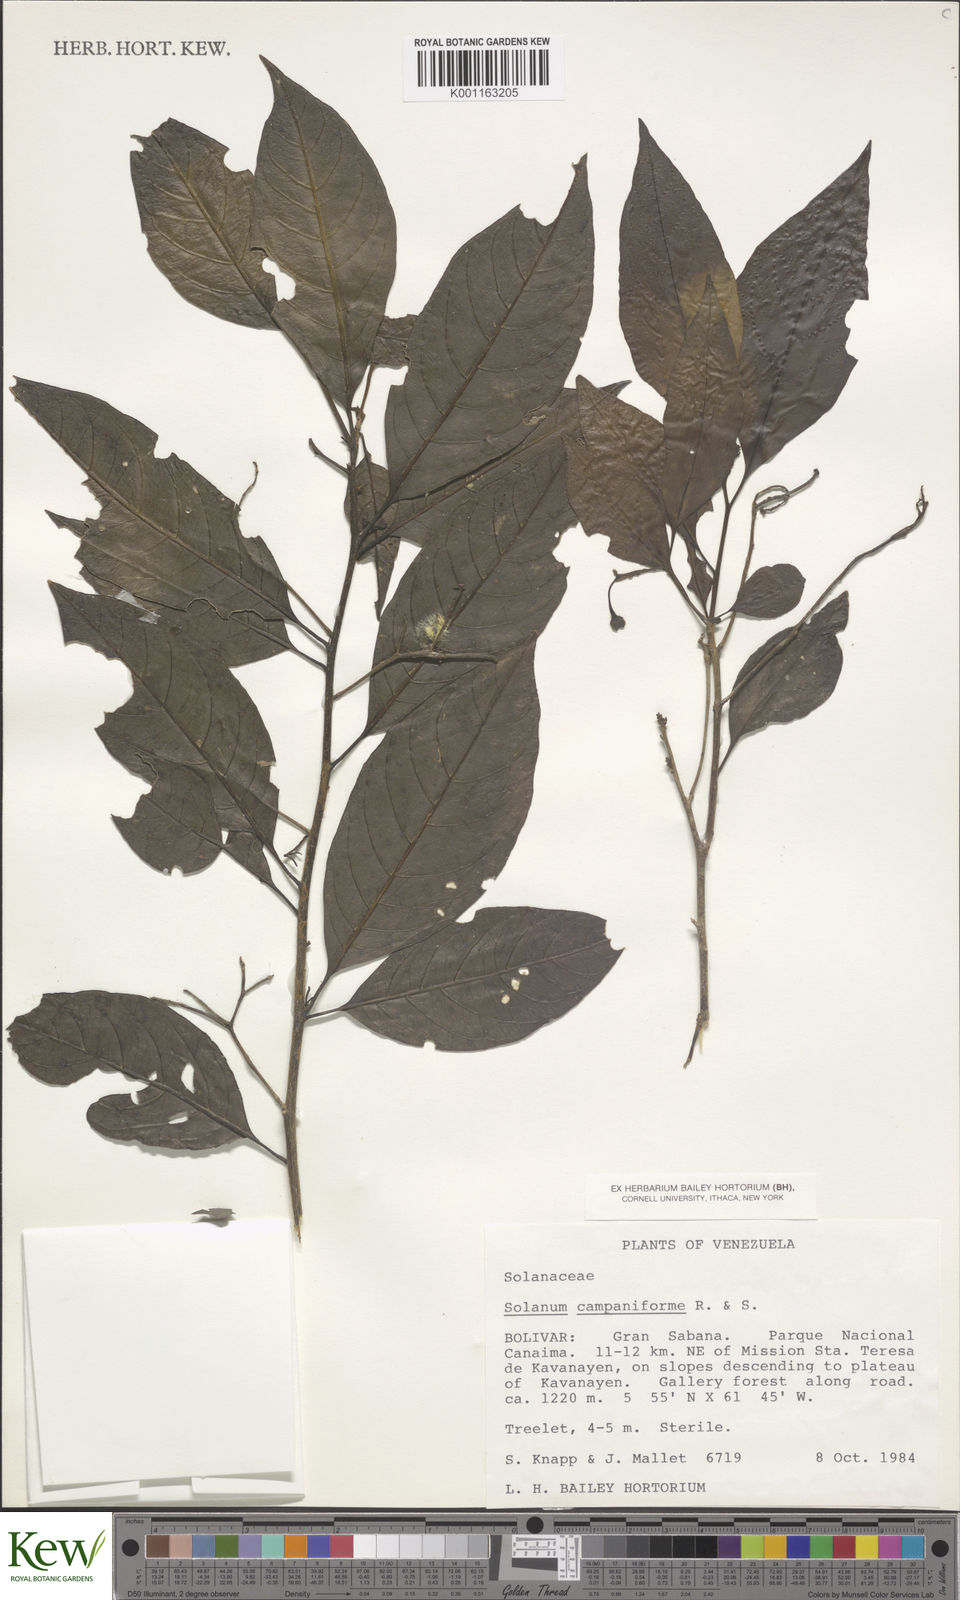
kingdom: Plantae
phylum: Tracheophyta
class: Magnoliopsida
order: Solanales
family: Solanaceae
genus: Solanum
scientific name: Solanum campaniforme
